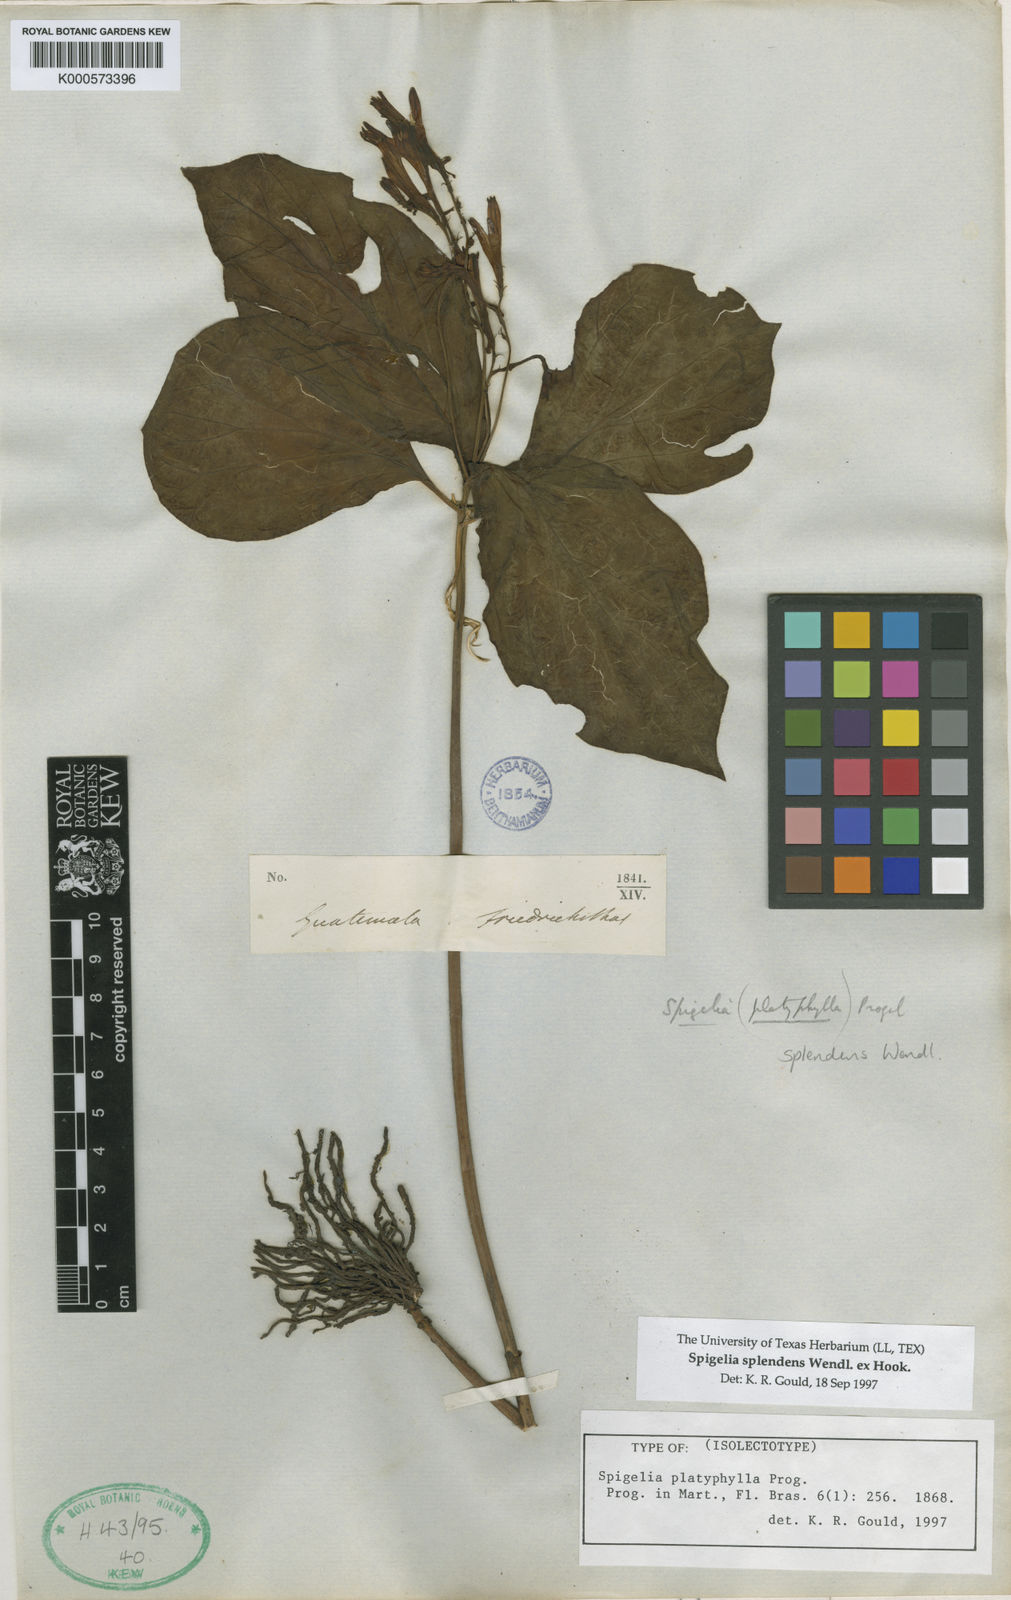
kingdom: Plantae
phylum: Tracheophyta
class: Magnoliopsida
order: Gentianales
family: Loganiaceae
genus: Spigelia
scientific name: Spigelia splendens
